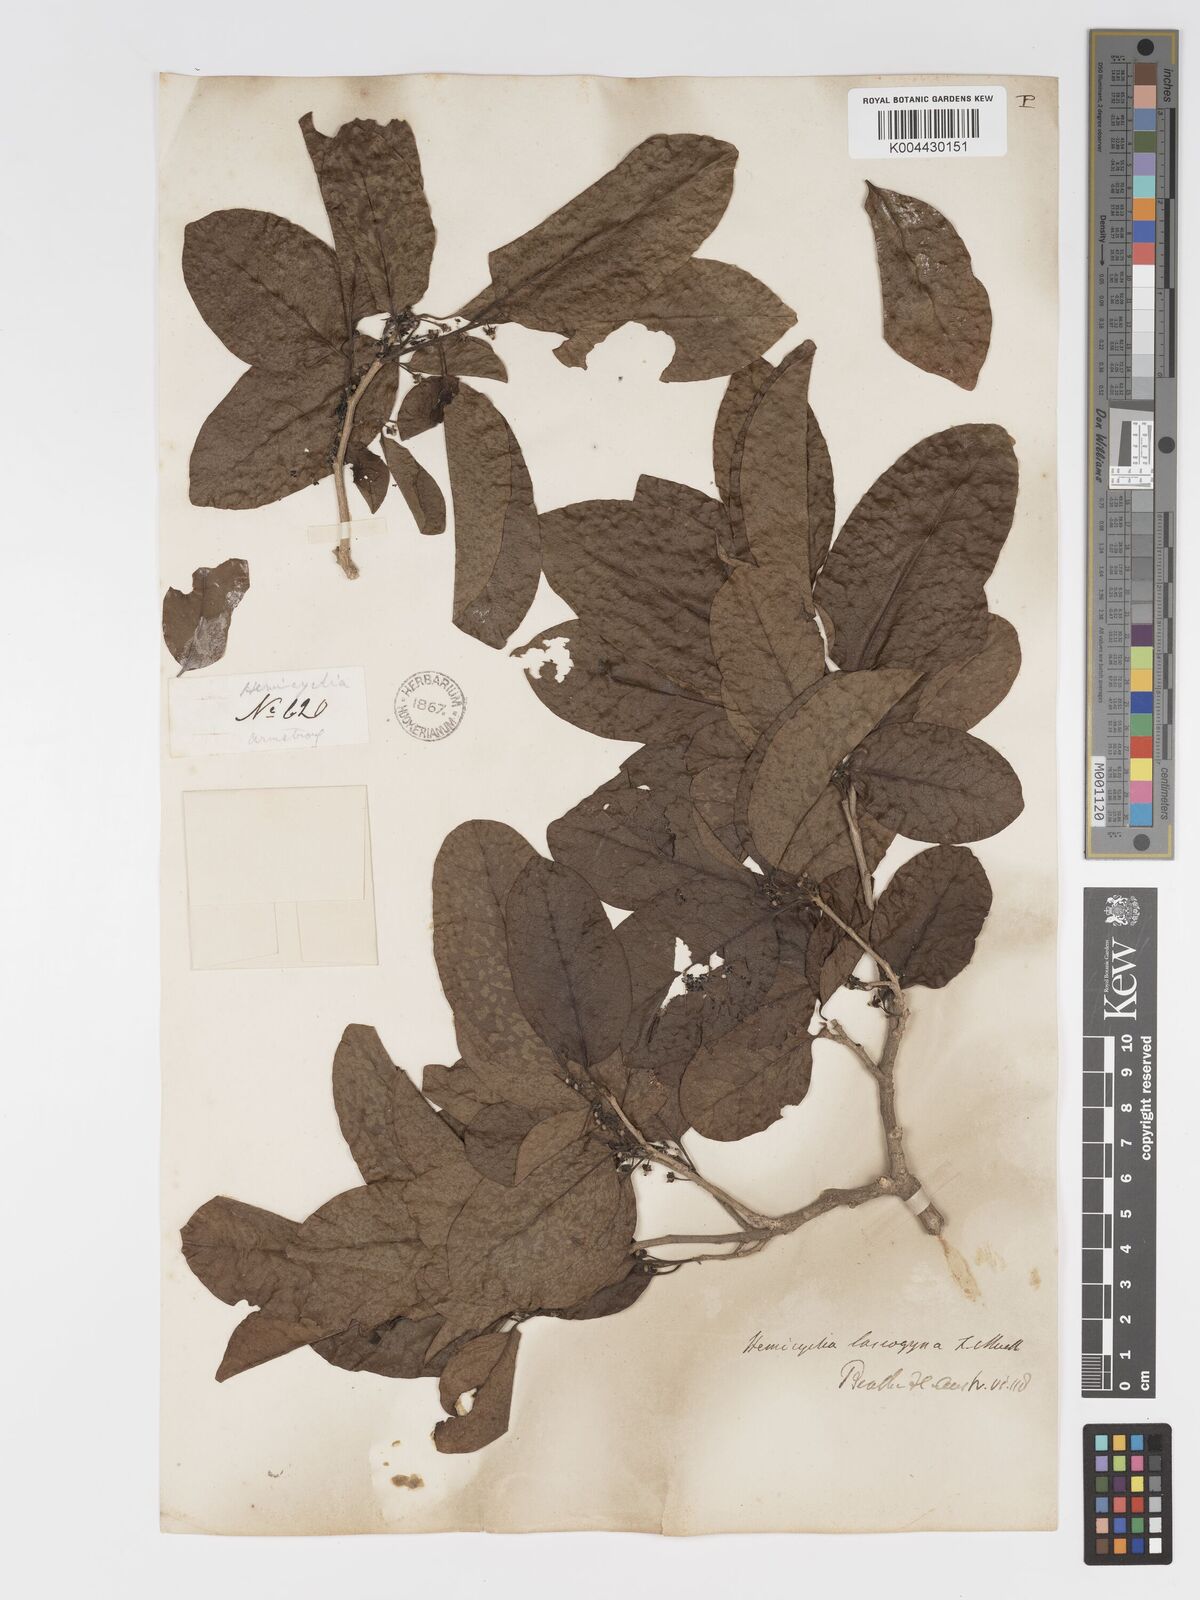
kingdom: Plantae
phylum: Tracheophyta
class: Magnoliopsida
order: Malpighiales
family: Putranjivaceae
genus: Drypetes
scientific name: Drypetes deplanchei
